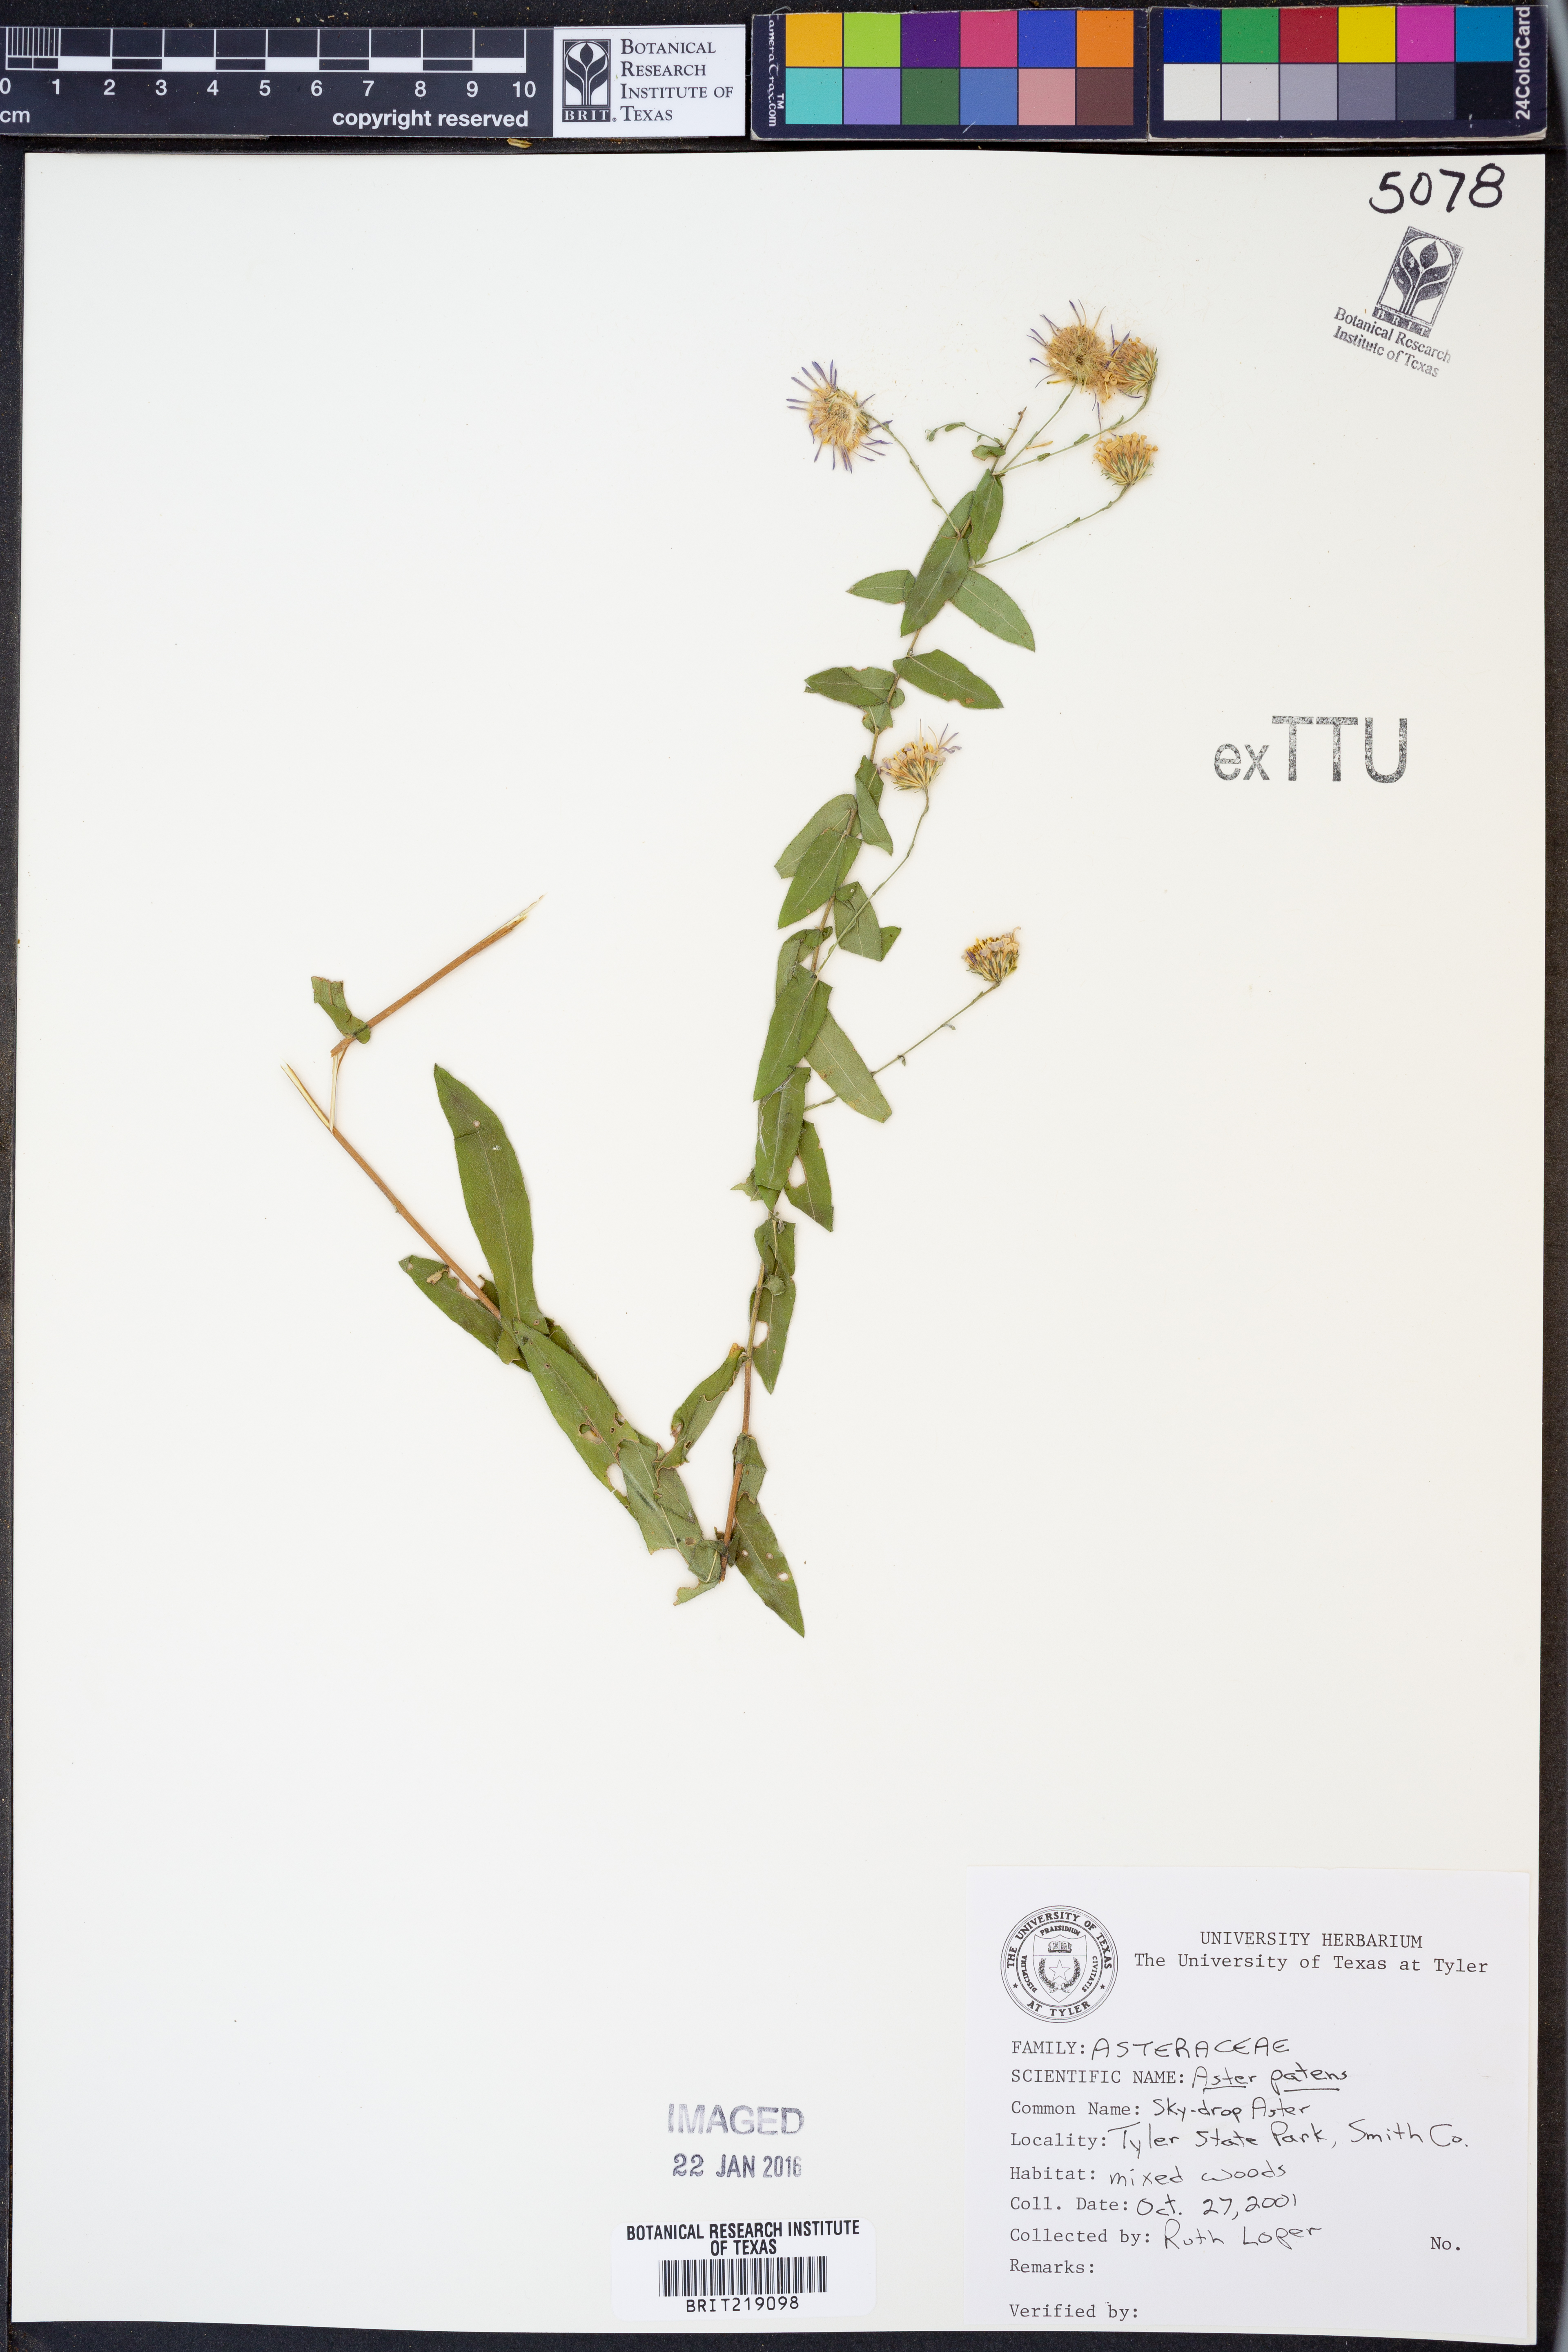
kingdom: Plantae
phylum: Tracheophyta
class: Magnoliopsida
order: Asterales
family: Asteraceae
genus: Symphyotrichum
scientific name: Symphyotrichum patens
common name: Late purple aster
